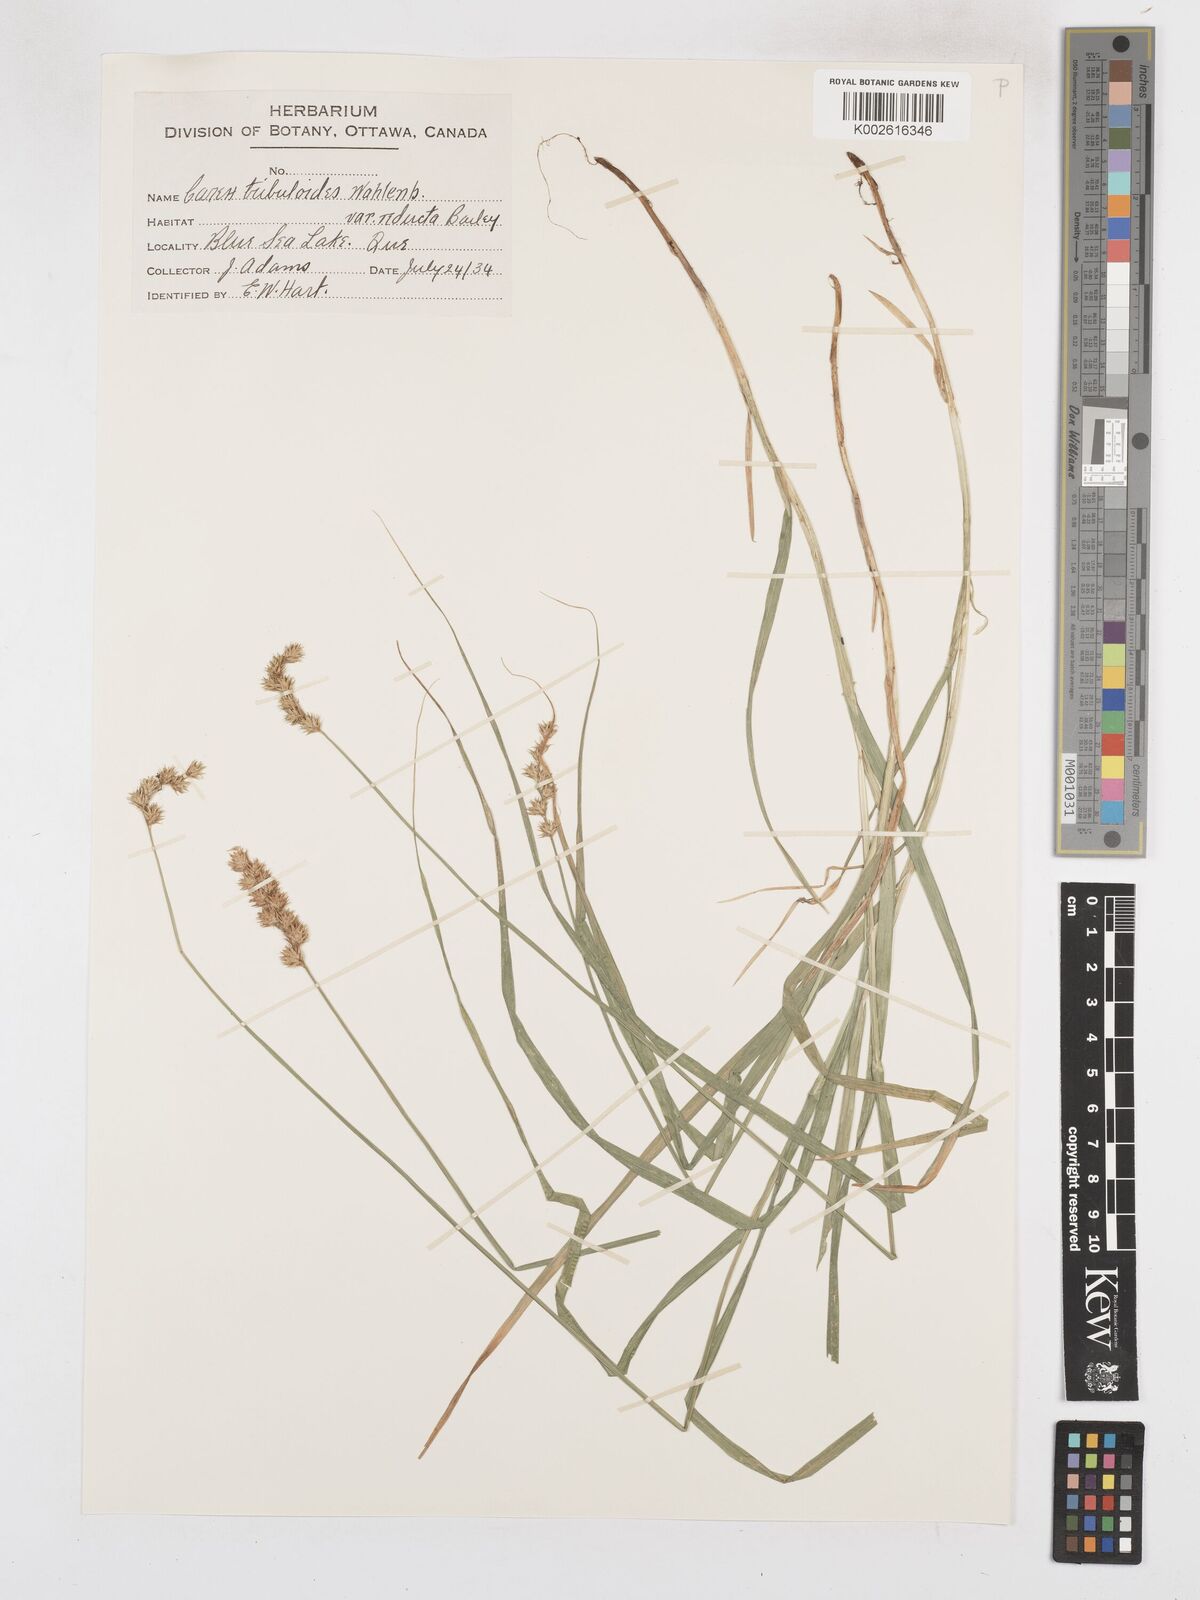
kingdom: Plantae
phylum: Tracheophyta
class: Liliopsida
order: Poales
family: Cyperaceae
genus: Carex
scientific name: Carex tribuloides
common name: Blunt broom sedge
